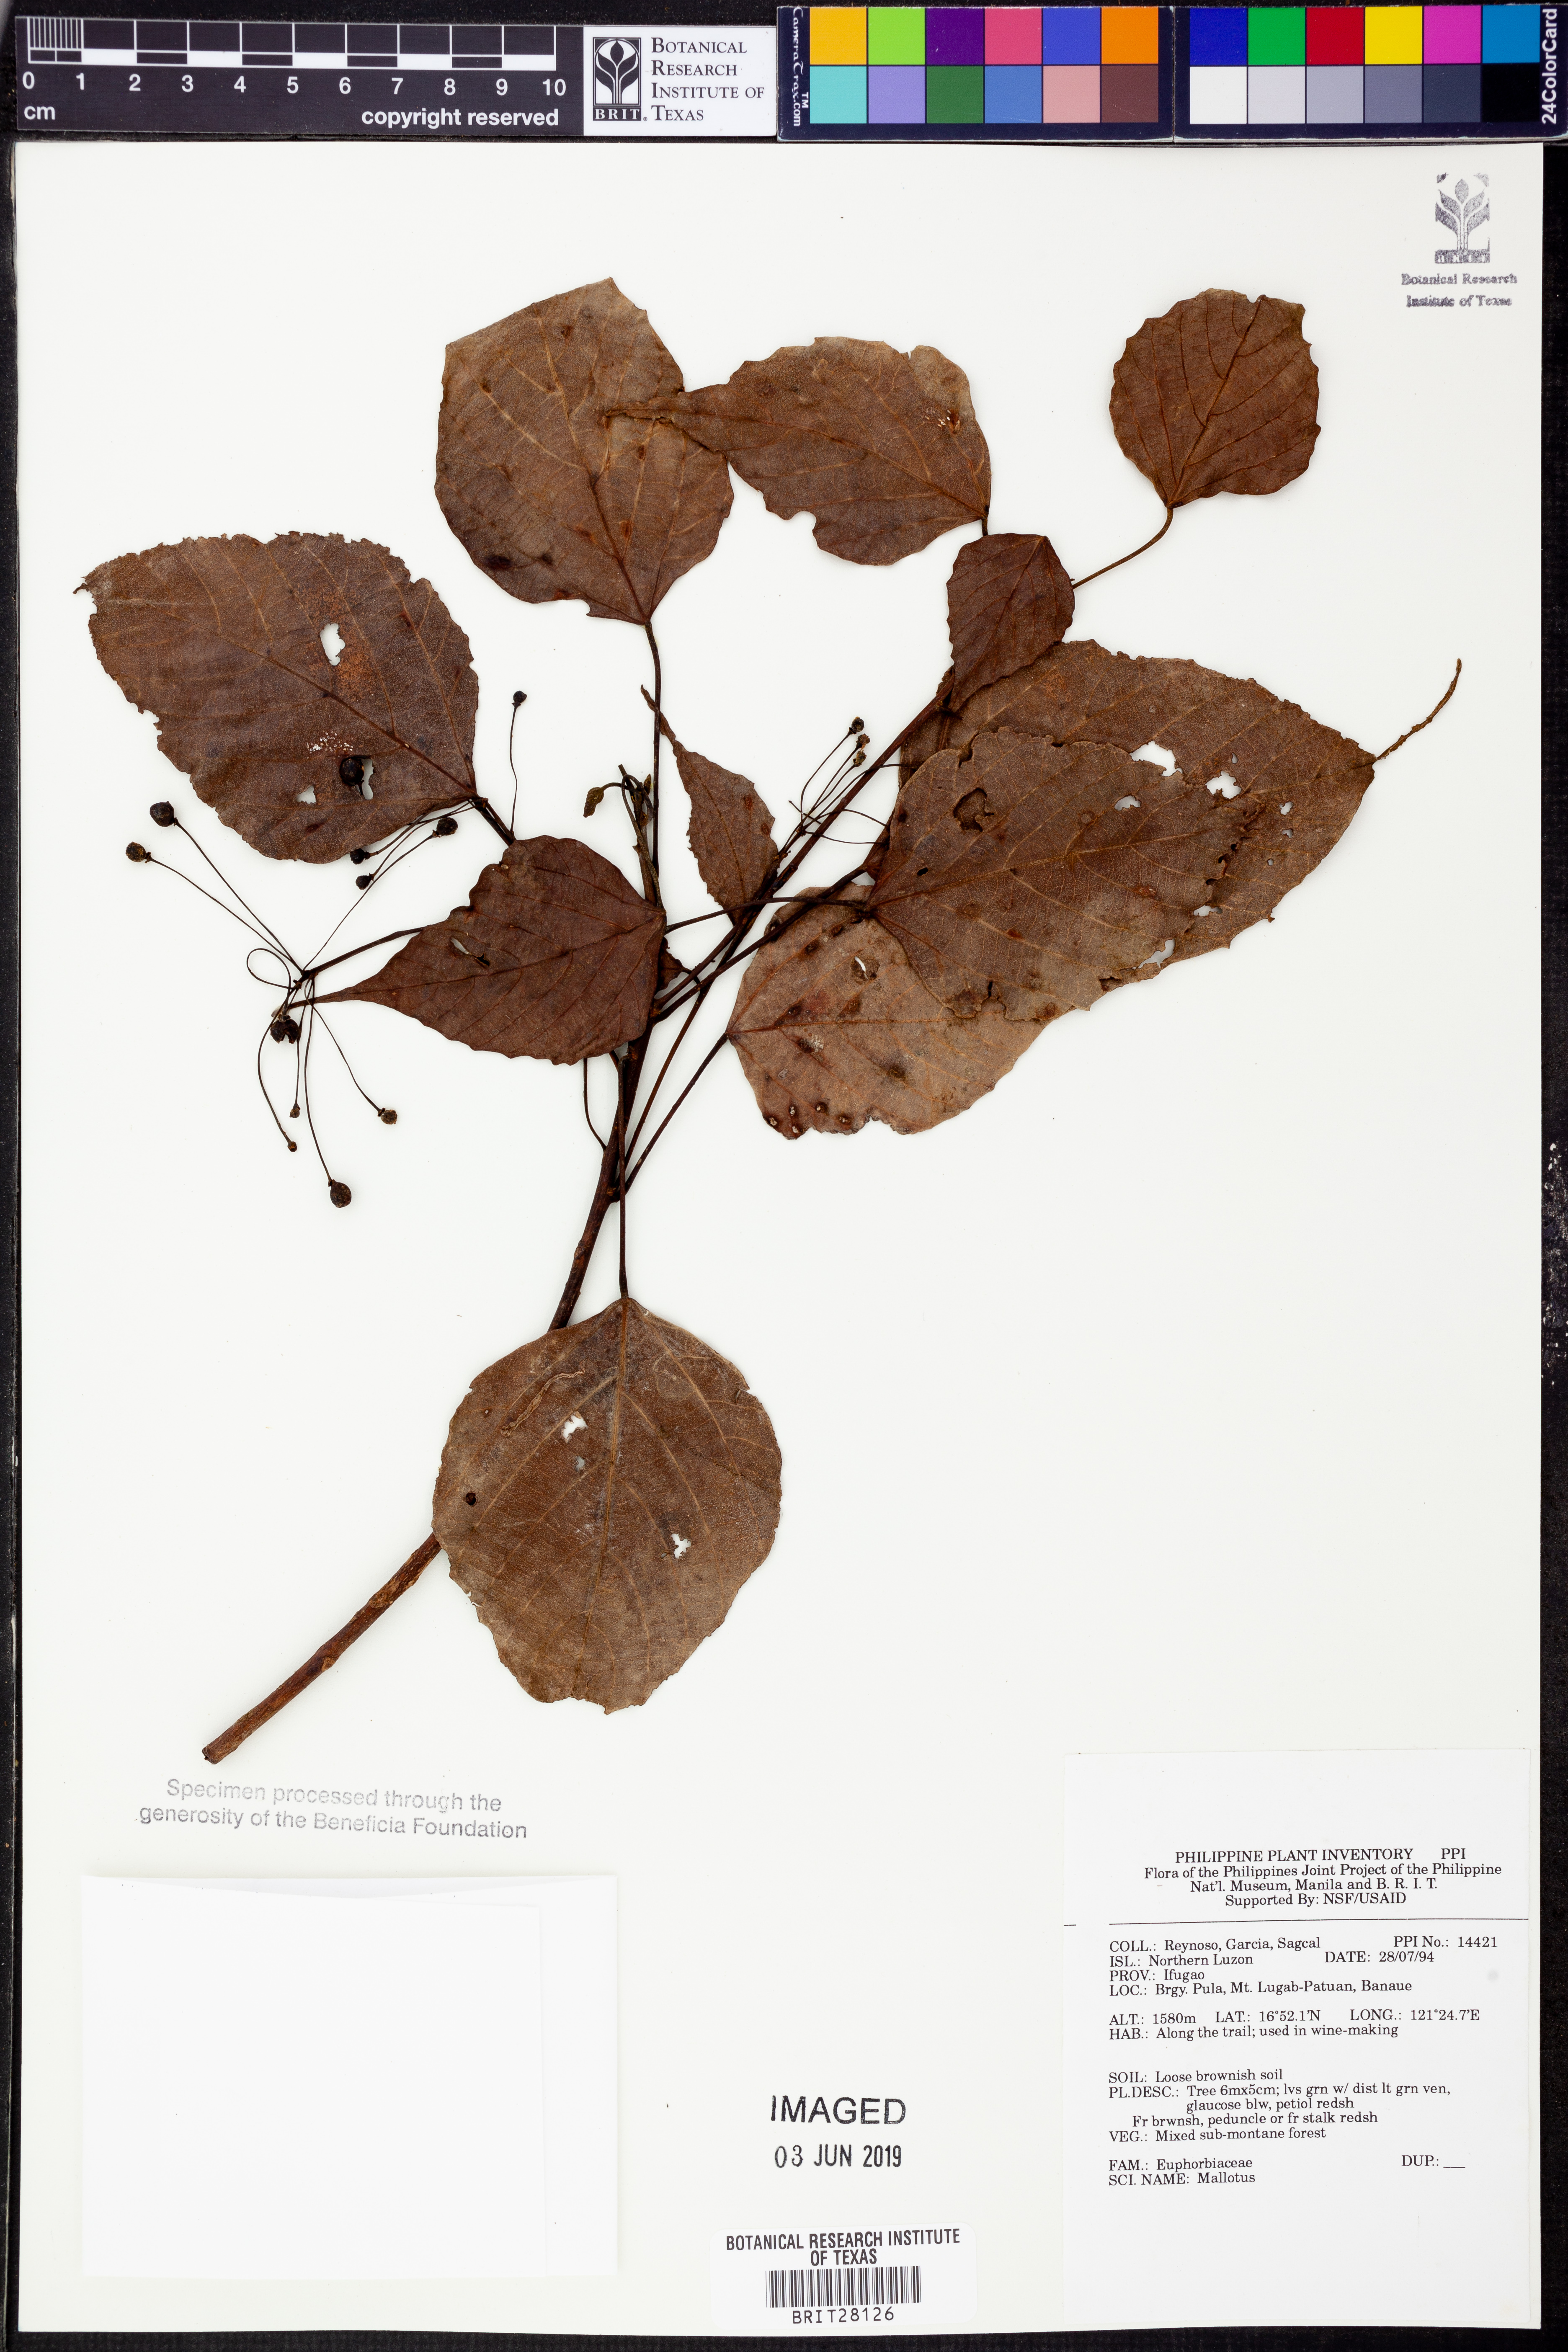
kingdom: Plantae
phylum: Tracheophyta
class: Magnoliopsida
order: Malpighiales
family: Euphorbiaceae
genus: Mallotus
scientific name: Mallotus
